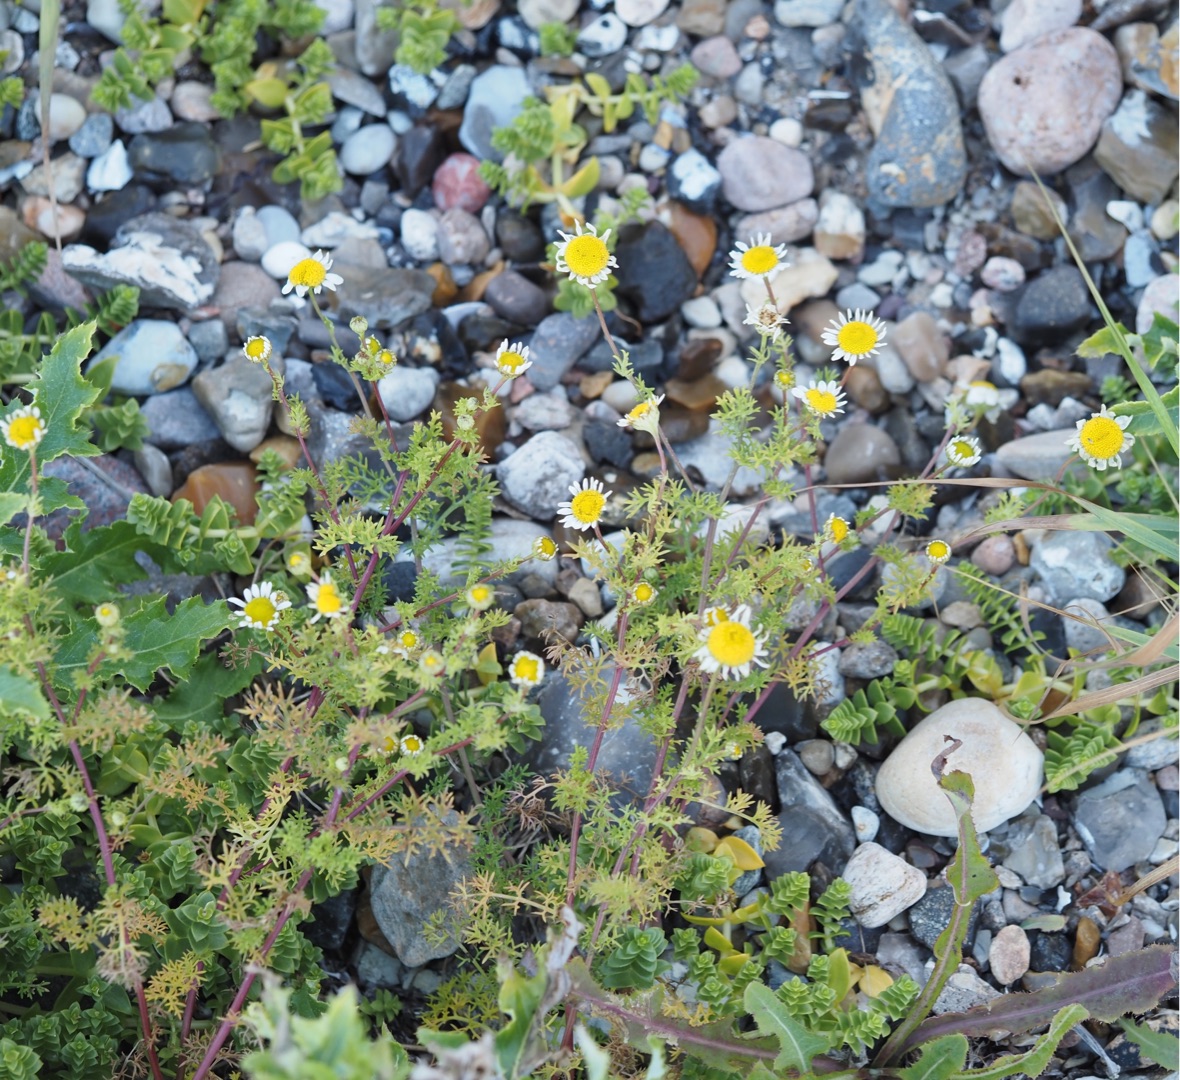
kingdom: Plantae
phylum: Tracheophyta
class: Magnoliopsida
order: Asterales
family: Asteraceae
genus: Tripleurospermum
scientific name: Tripleurospermum maritimum
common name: Strand-kamille
